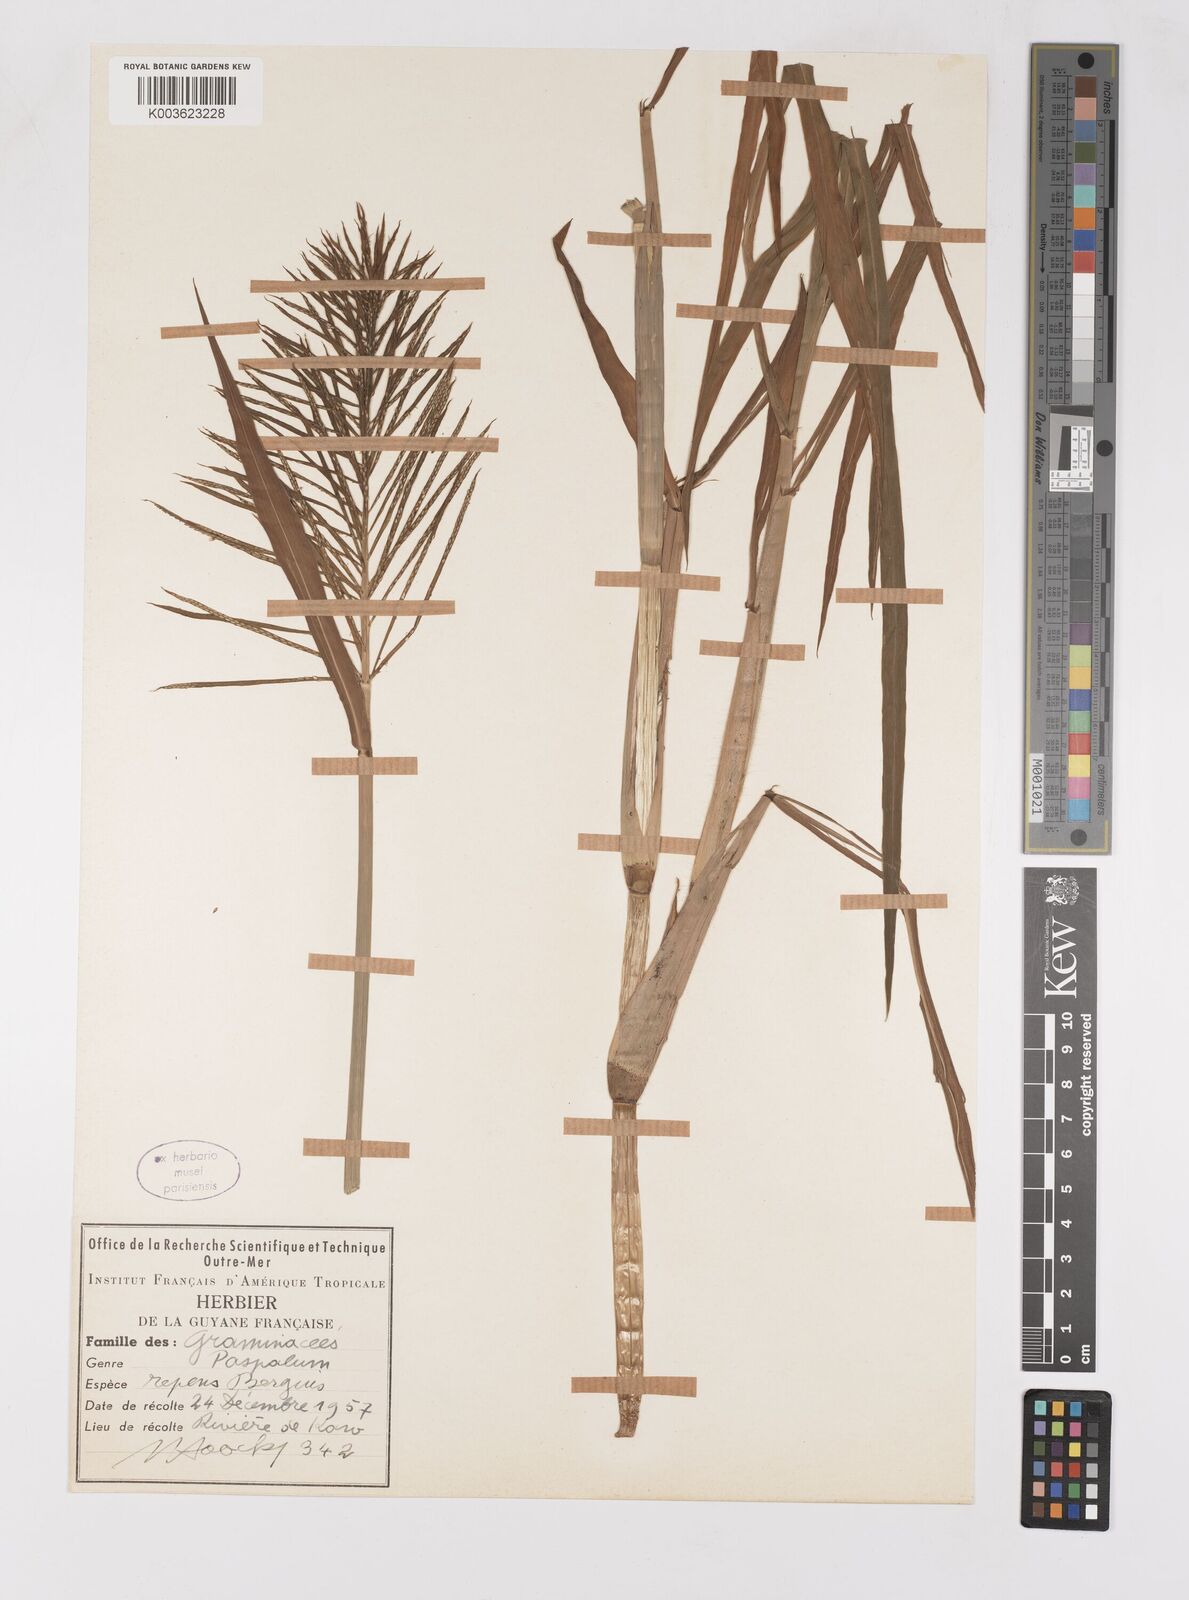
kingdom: Plantae
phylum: Tracheophyta
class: Liliopsida
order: Poales
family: Poaceae
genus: Paspalum
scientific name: Paspalum repens
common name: Water paspalum
